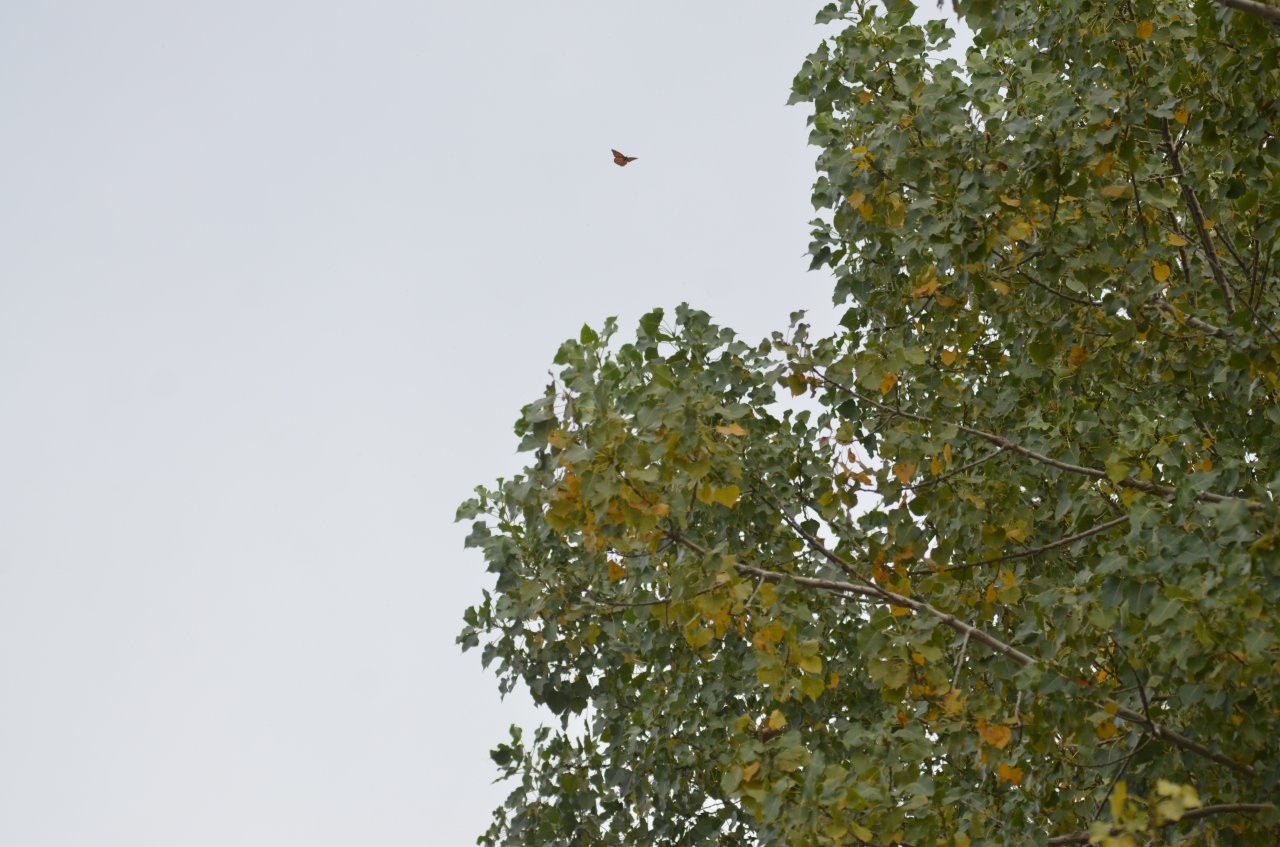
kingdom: Animalia
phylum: Arthropoda
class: Insecta
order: Lepidoptera
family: Nymphalidae
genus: Danaus
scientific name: Danaus plexippus
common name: Monarch
